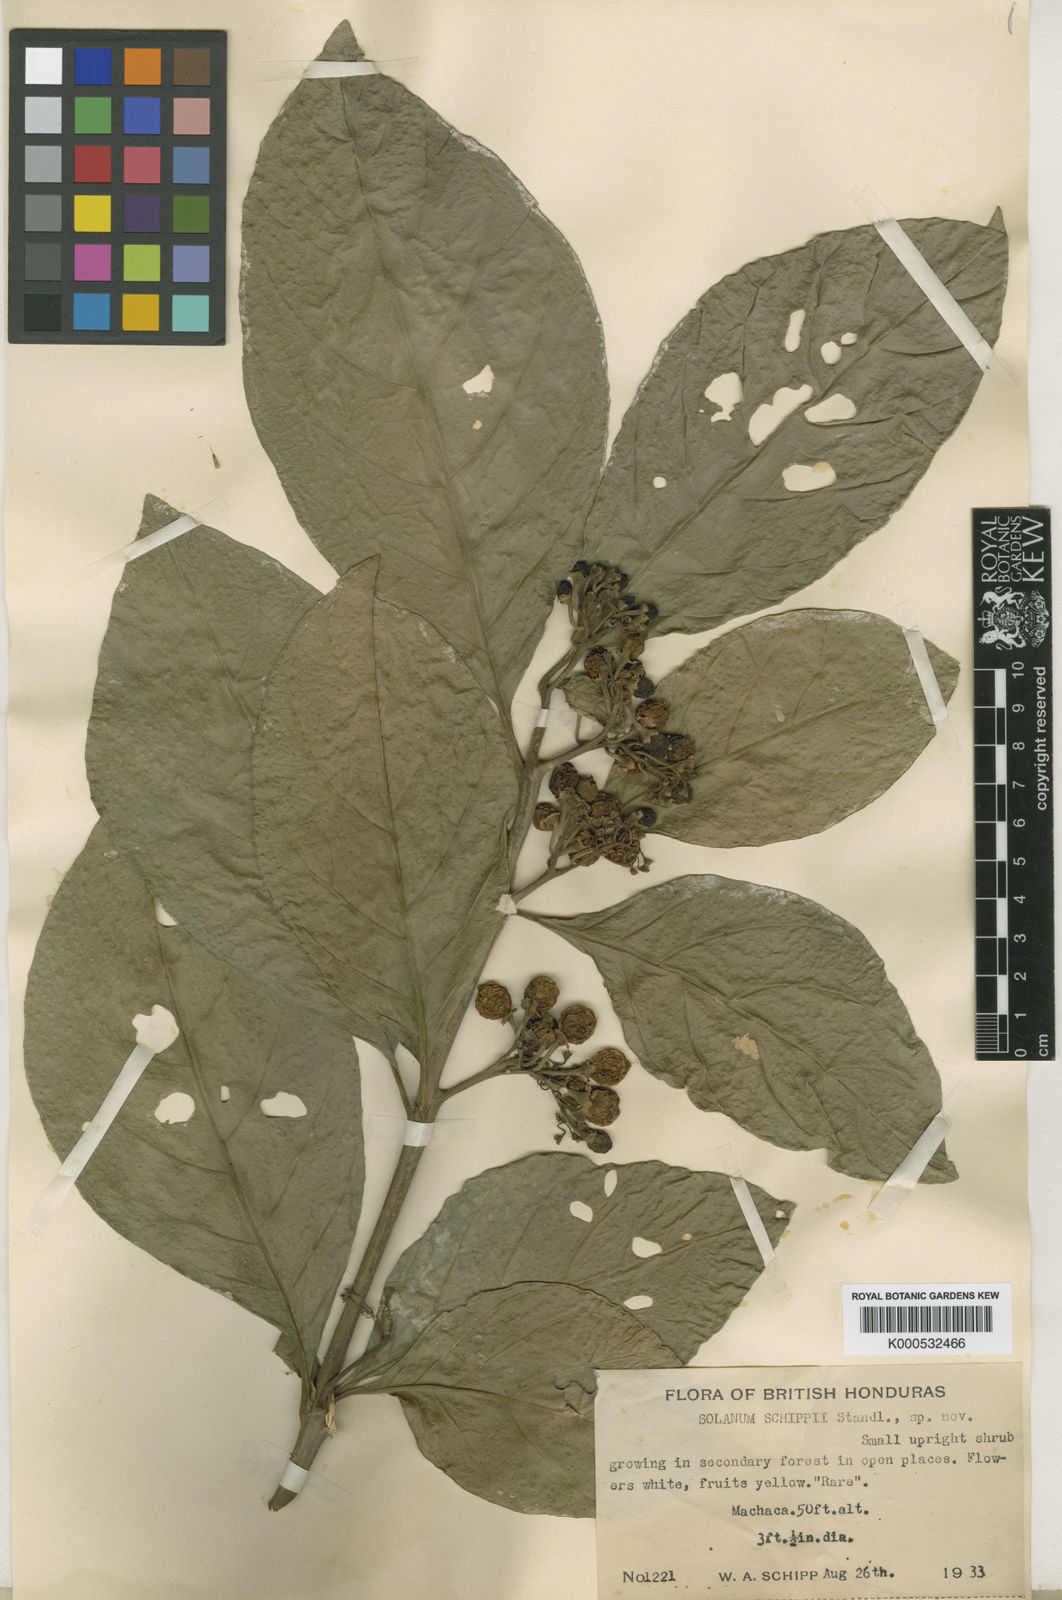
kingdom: Plantae
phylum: Tracheophyta
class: Magnoliopsida
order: Solanales
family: Solanaceae
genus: Solanum
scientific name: Solanum rovirosanum
